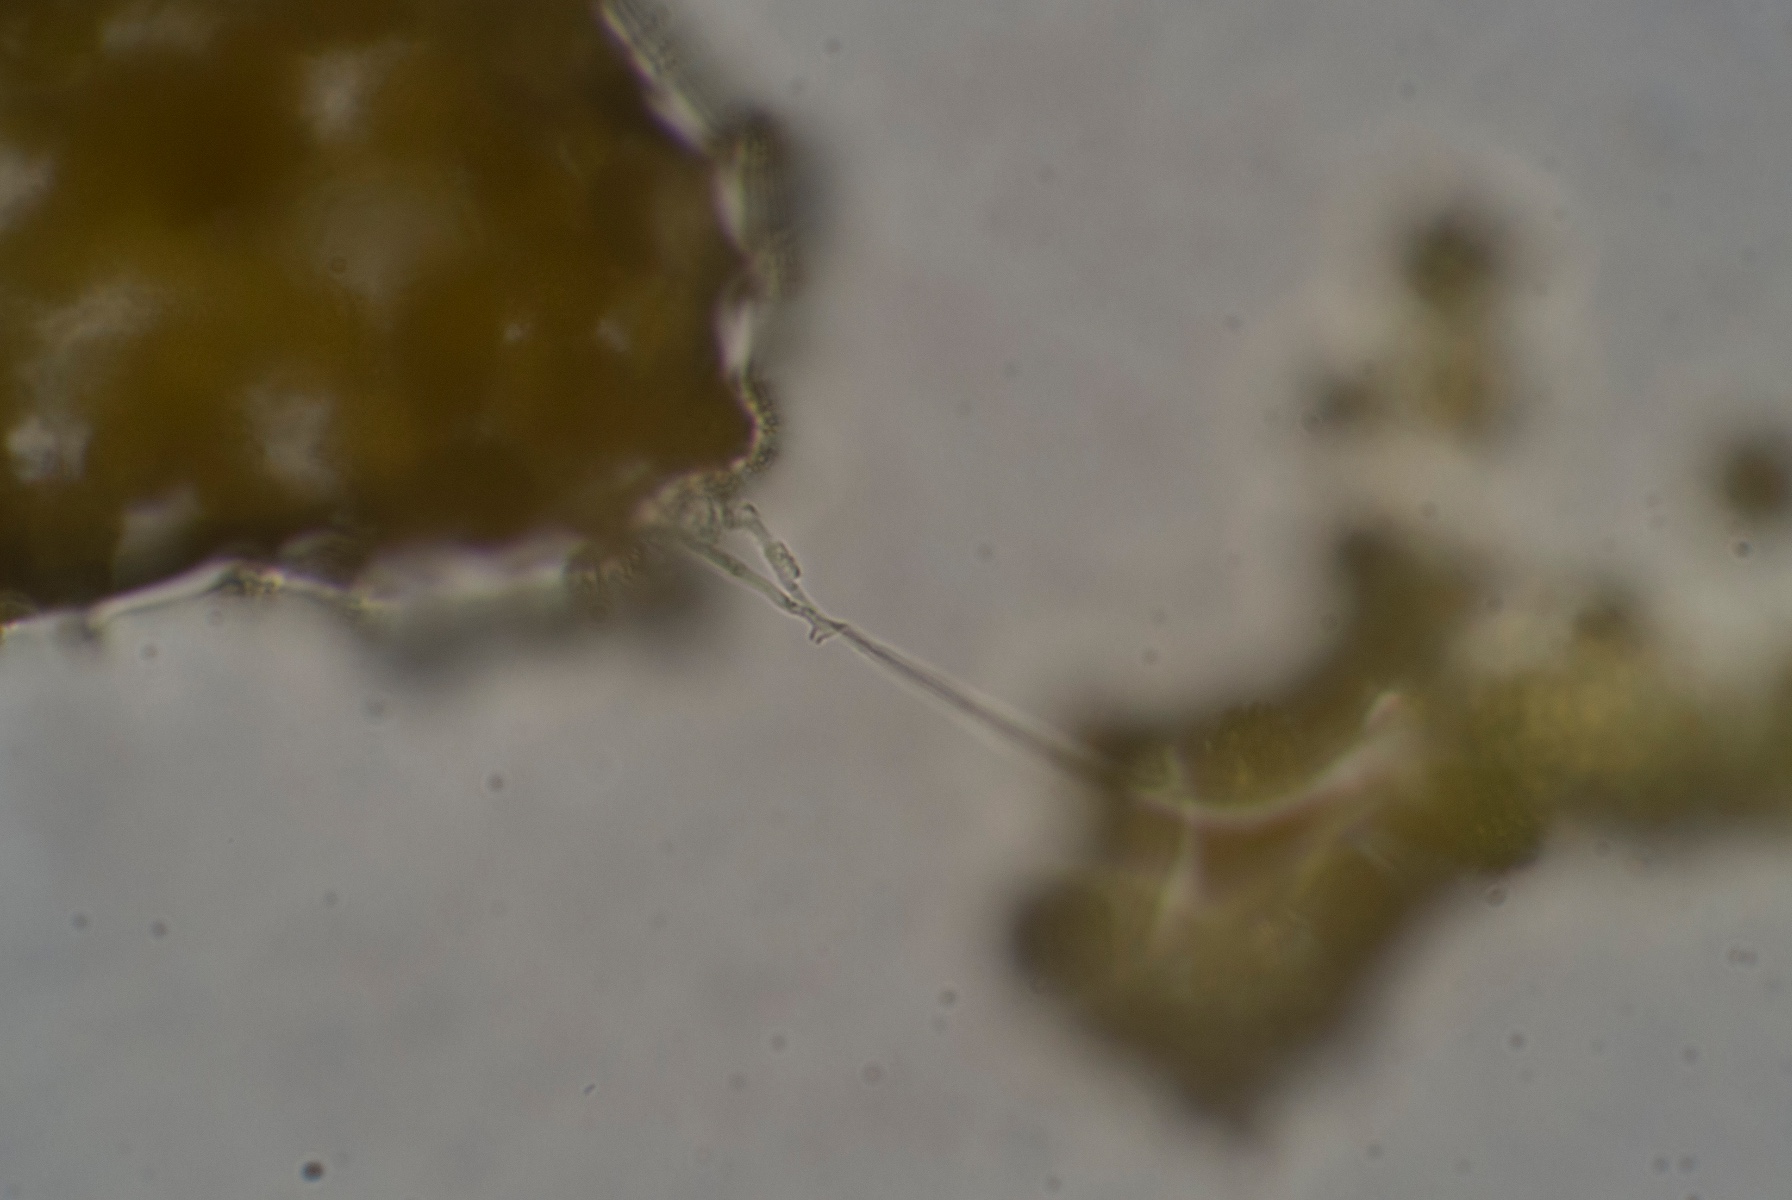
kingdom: Fungi
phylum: Ascomycota
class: Sordariomycetes
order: Hypocreales
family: Hypocreaceae
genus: Hypomyces
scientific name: Hypomyces
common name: snylteskorpe
